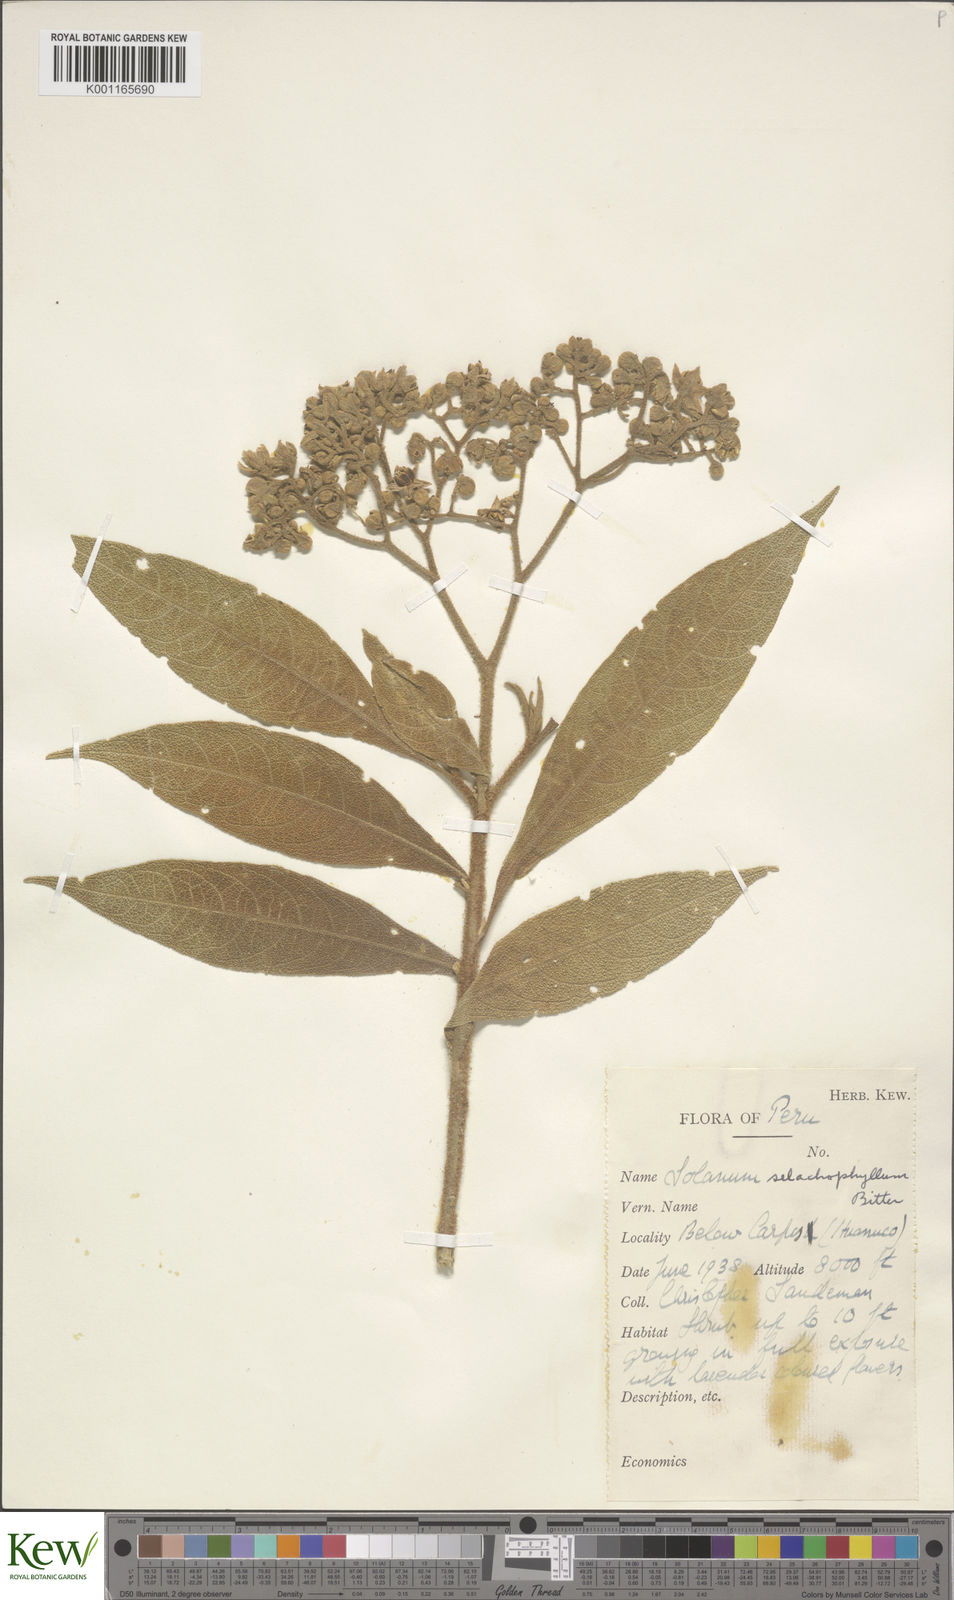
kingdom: Plantae
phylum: Tracheophyta
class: Magnoliopsida
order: Solanales
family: Solanaceae
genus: Solanum
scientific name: Solanum selachophyllum
